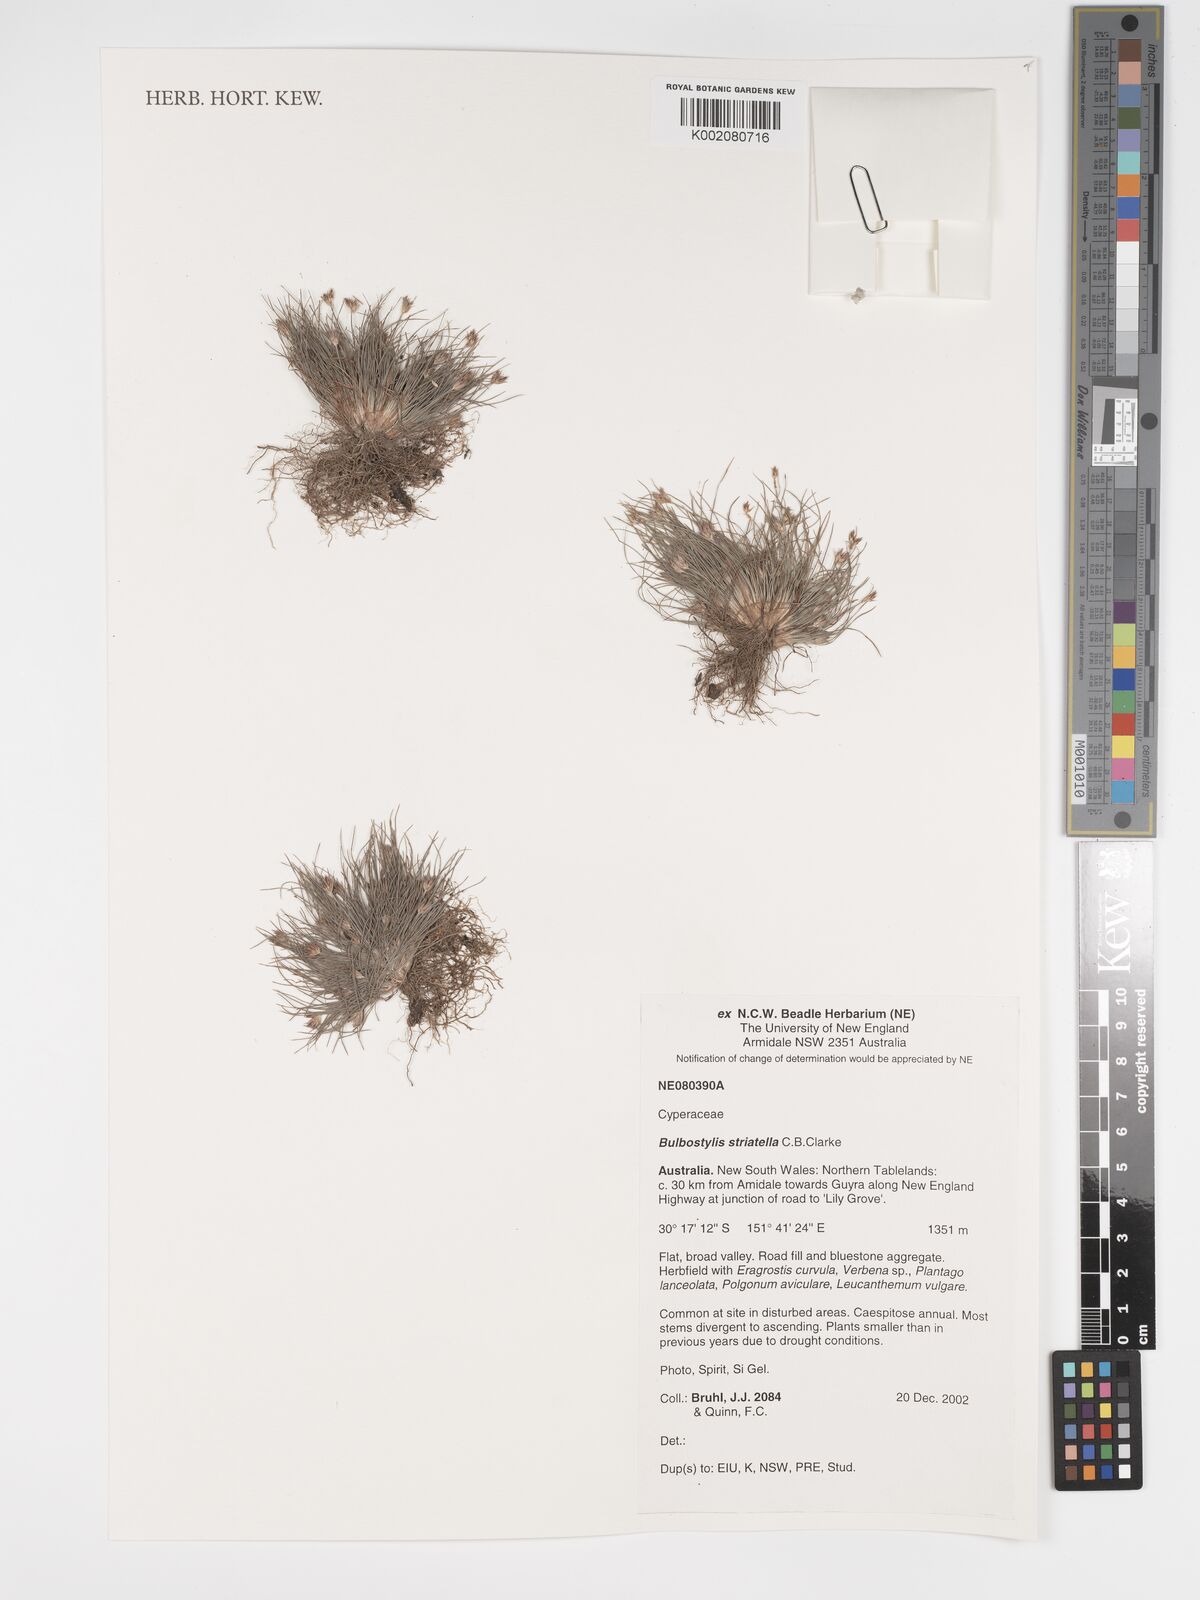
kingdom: Plantae
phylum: Tracheophyta
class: Liliopsida
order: Poales
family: Cyperaceae
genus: Bulbostylis
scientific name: Bulbostylis humilis
